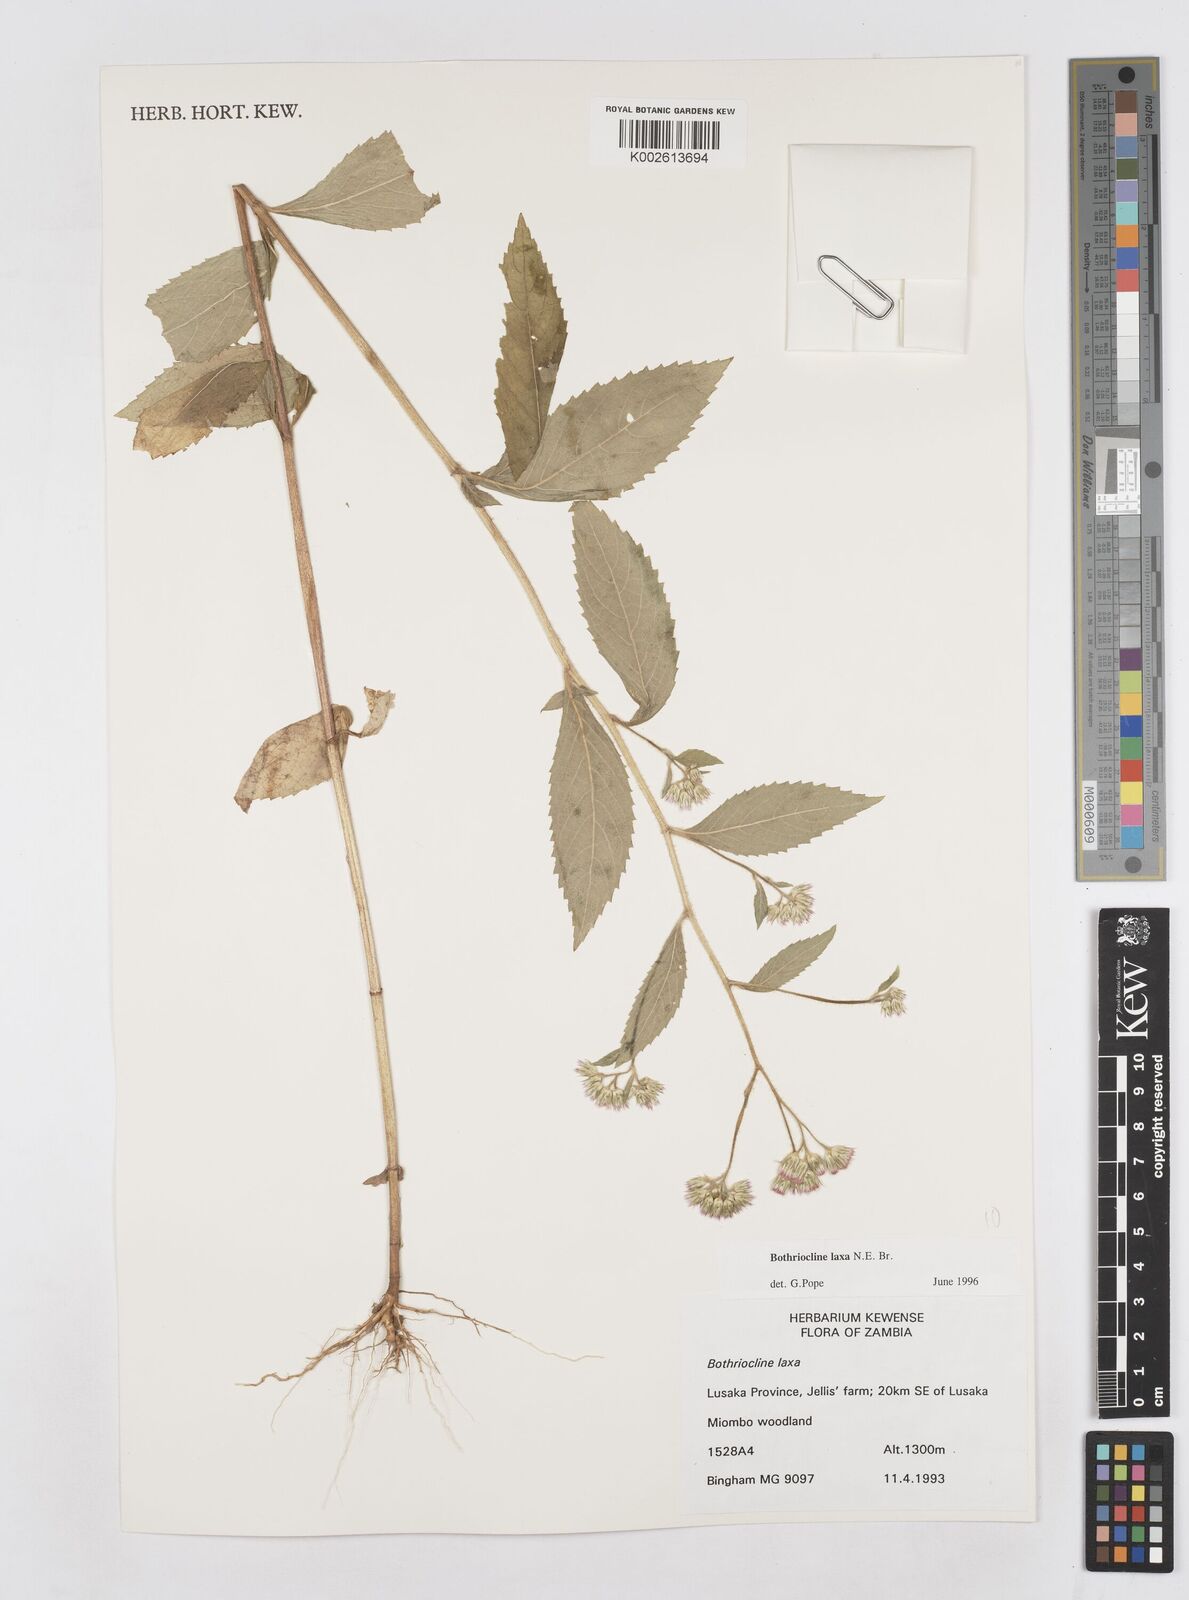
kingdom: Plantae
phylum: Tracheophyta
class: Magnoliopsida
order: Asterales
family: Asteraceae
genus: Bothriocline
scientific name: Bothriocline laxa
